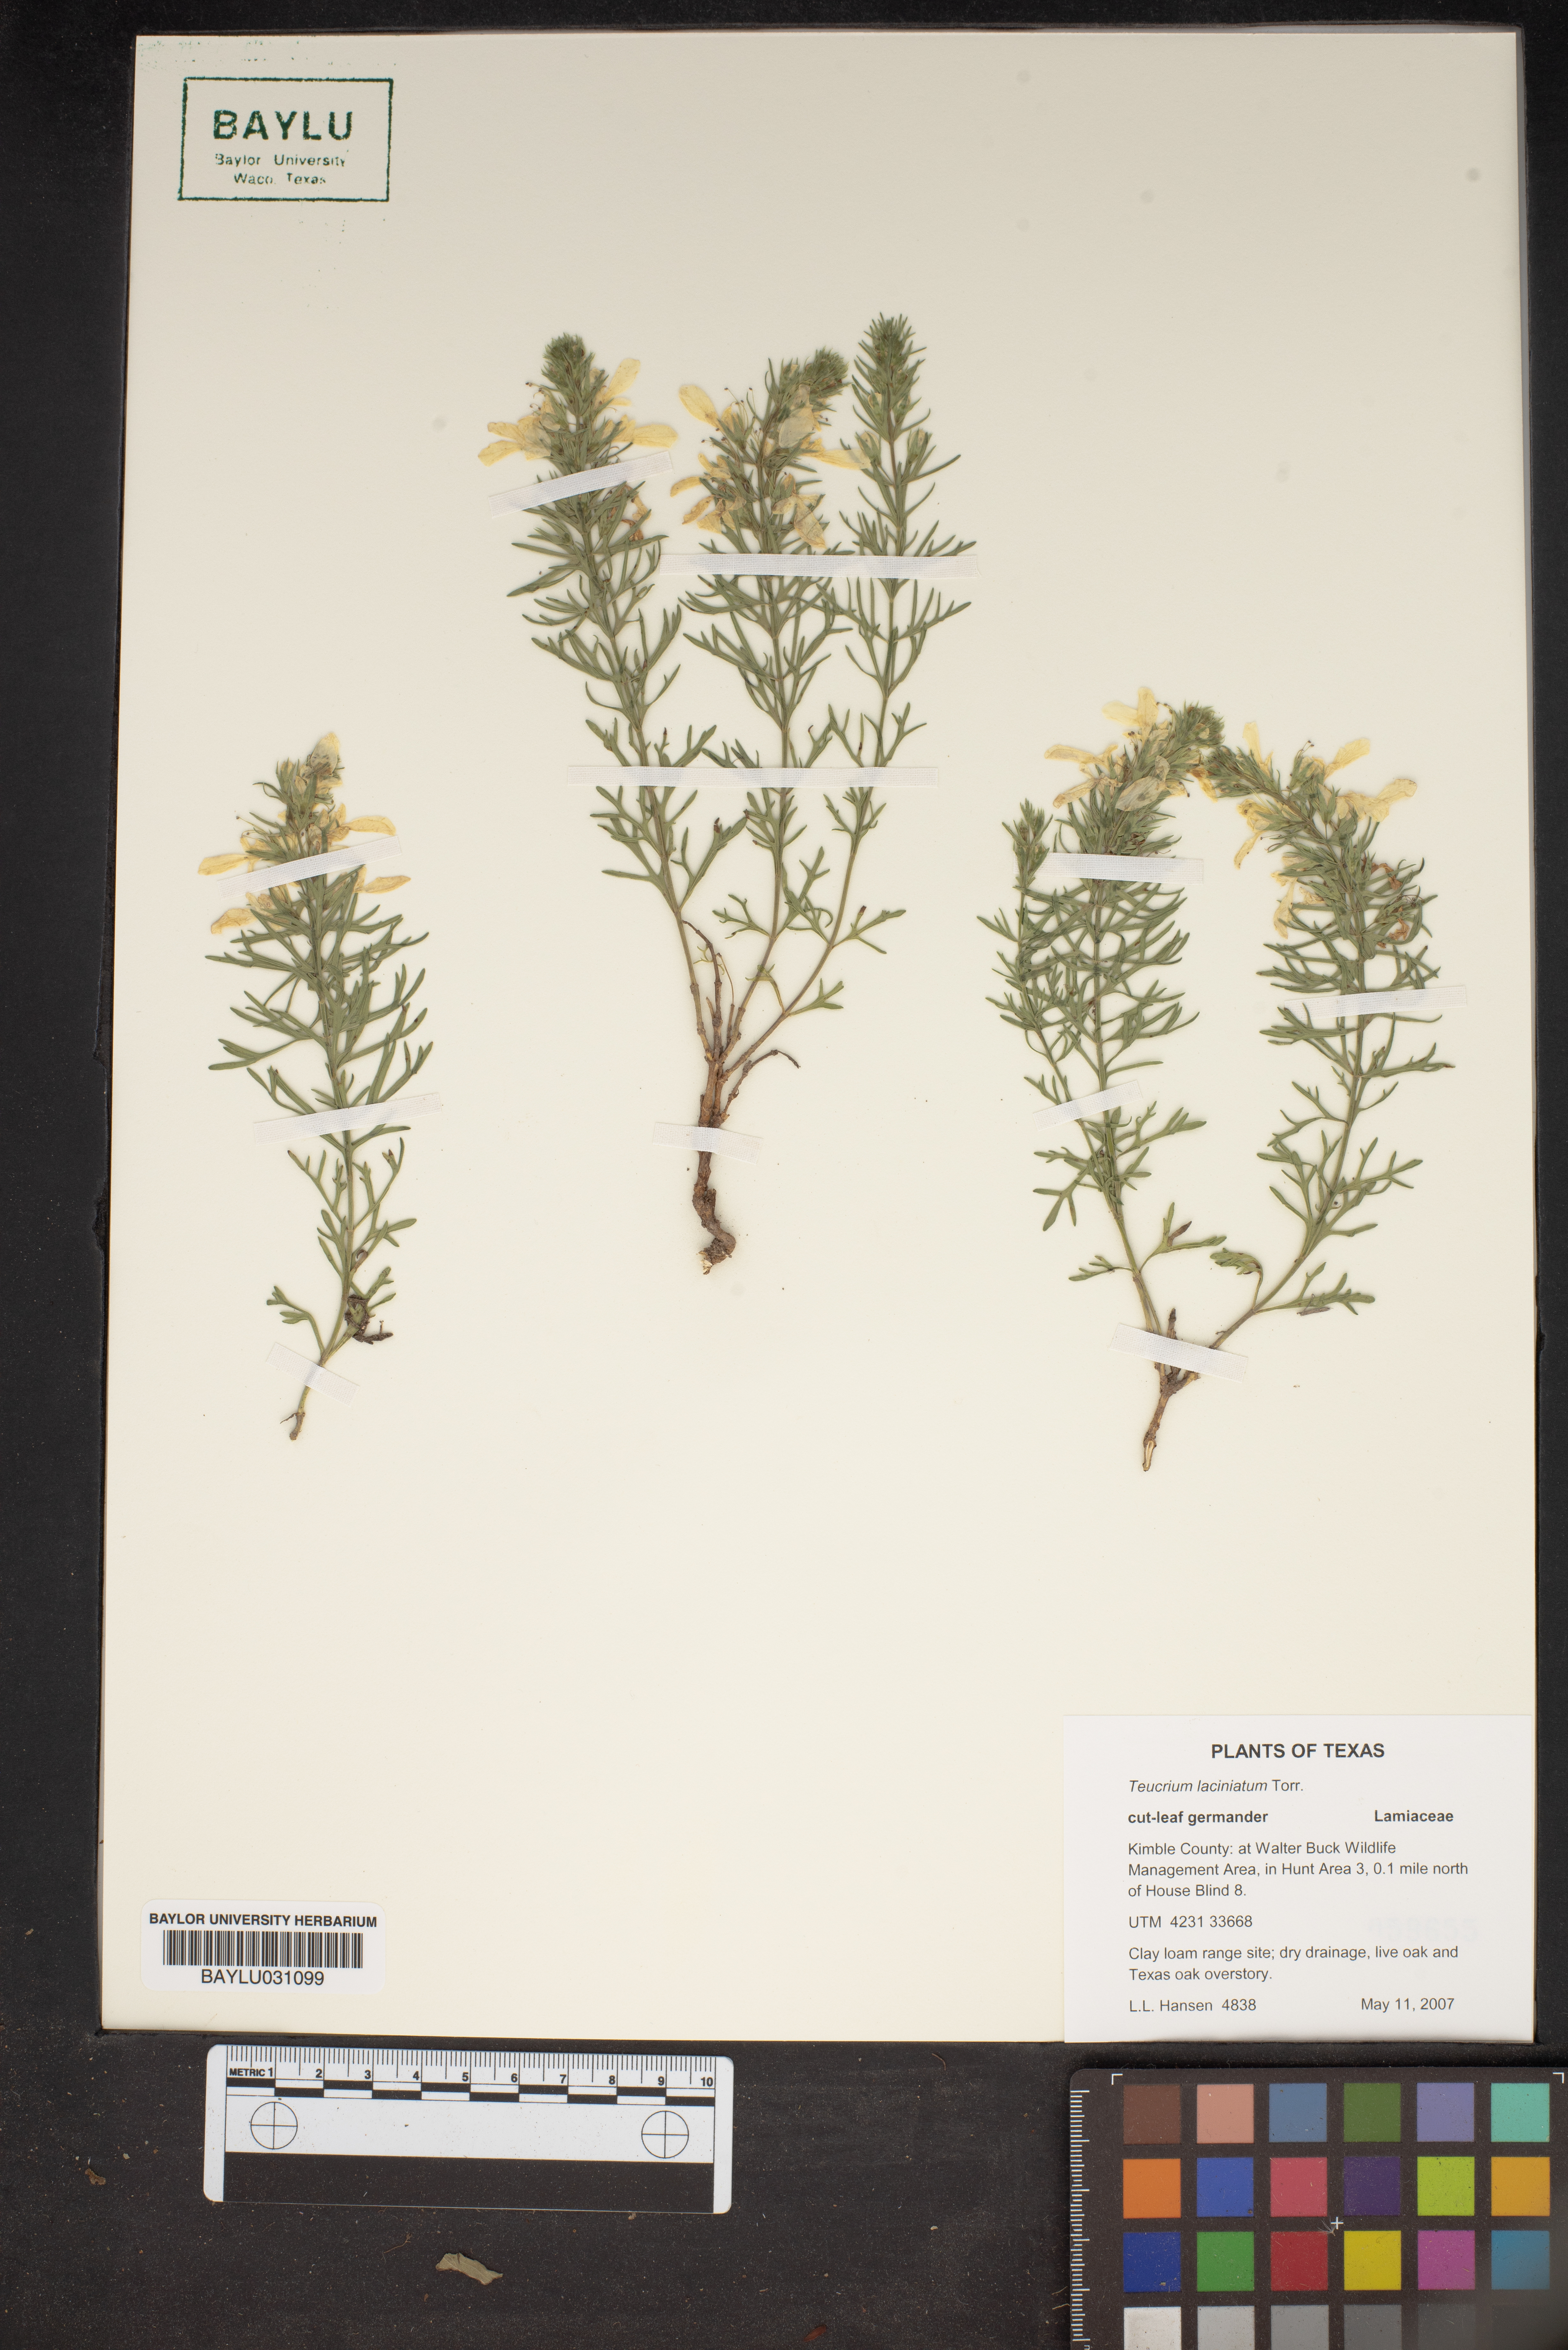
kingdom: Plantae
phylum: Tracheophyta
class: Magnoliopsida
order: Lamiales
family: Lamiaceae
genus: Teucrium
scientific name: Teucrium laciniatum
